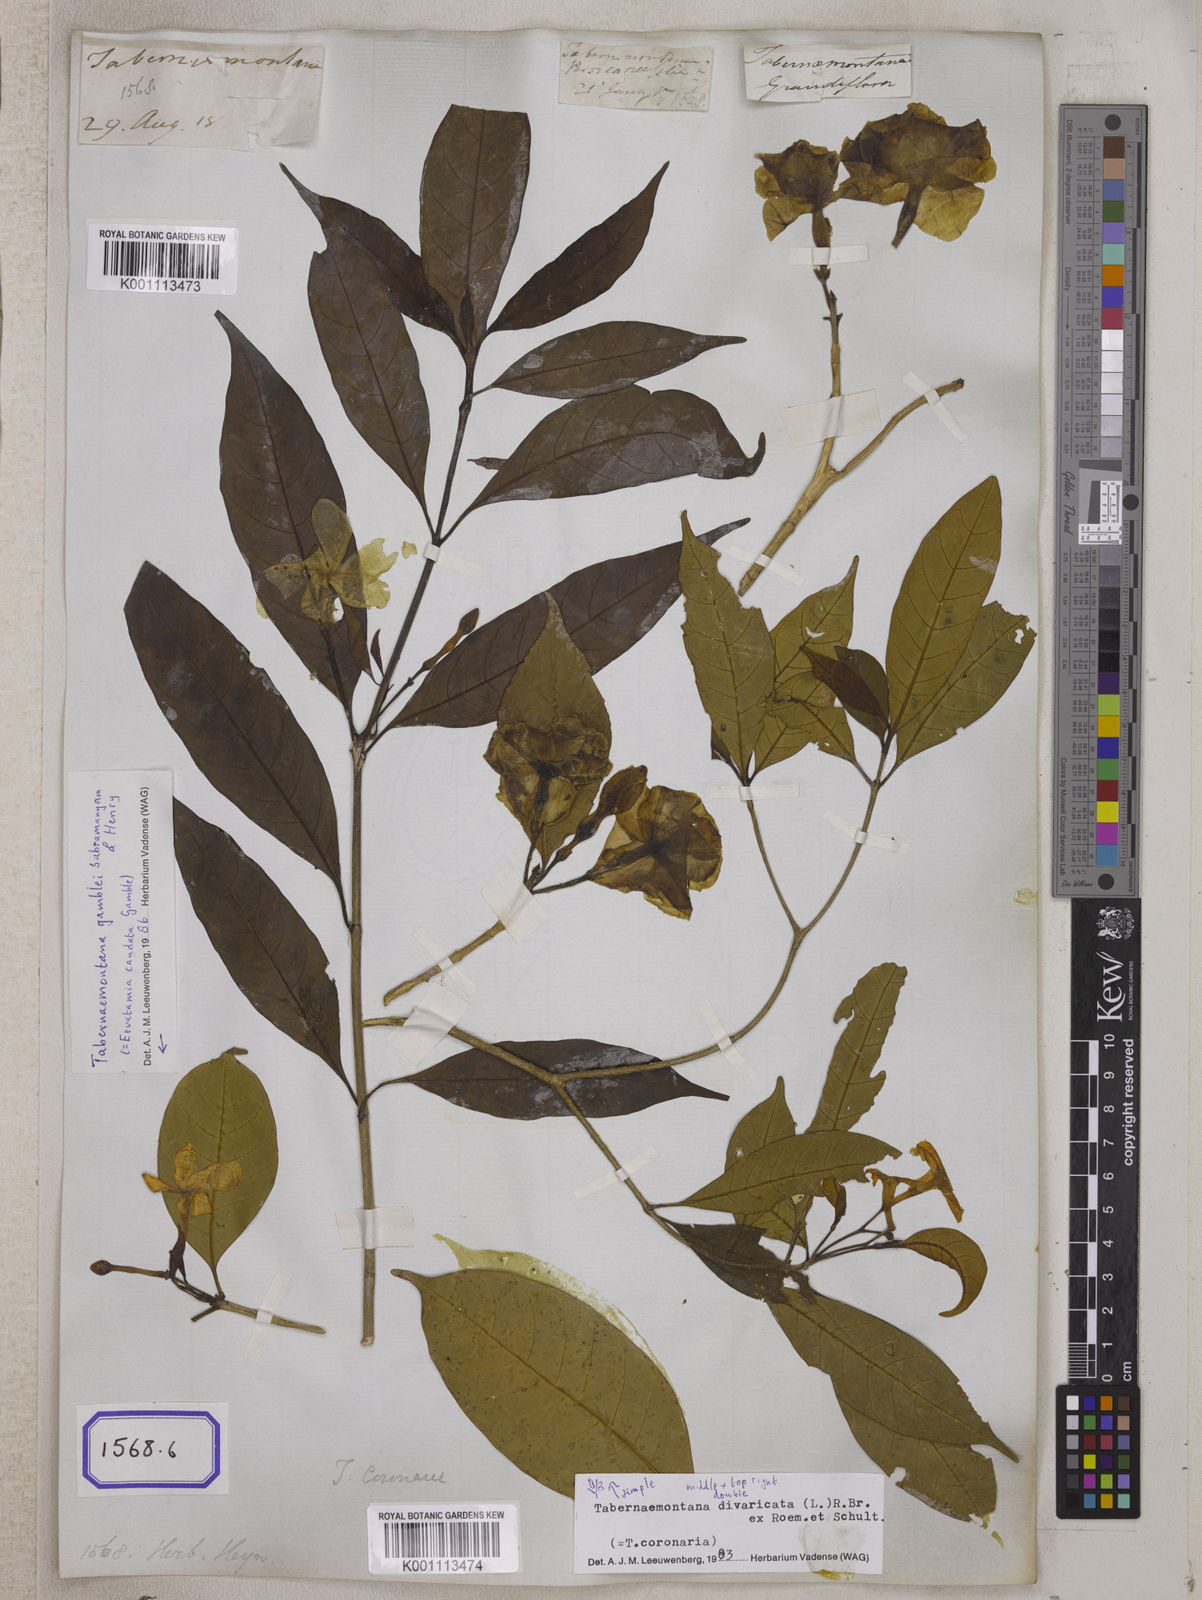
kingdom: Plantae
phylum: Tracheophyta
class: Magnoliopsida
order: Gentianales
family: Apocynaceae
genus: Tabernaemontana
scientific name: Tabernaemontana divaricata
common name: Pinwheelflower
